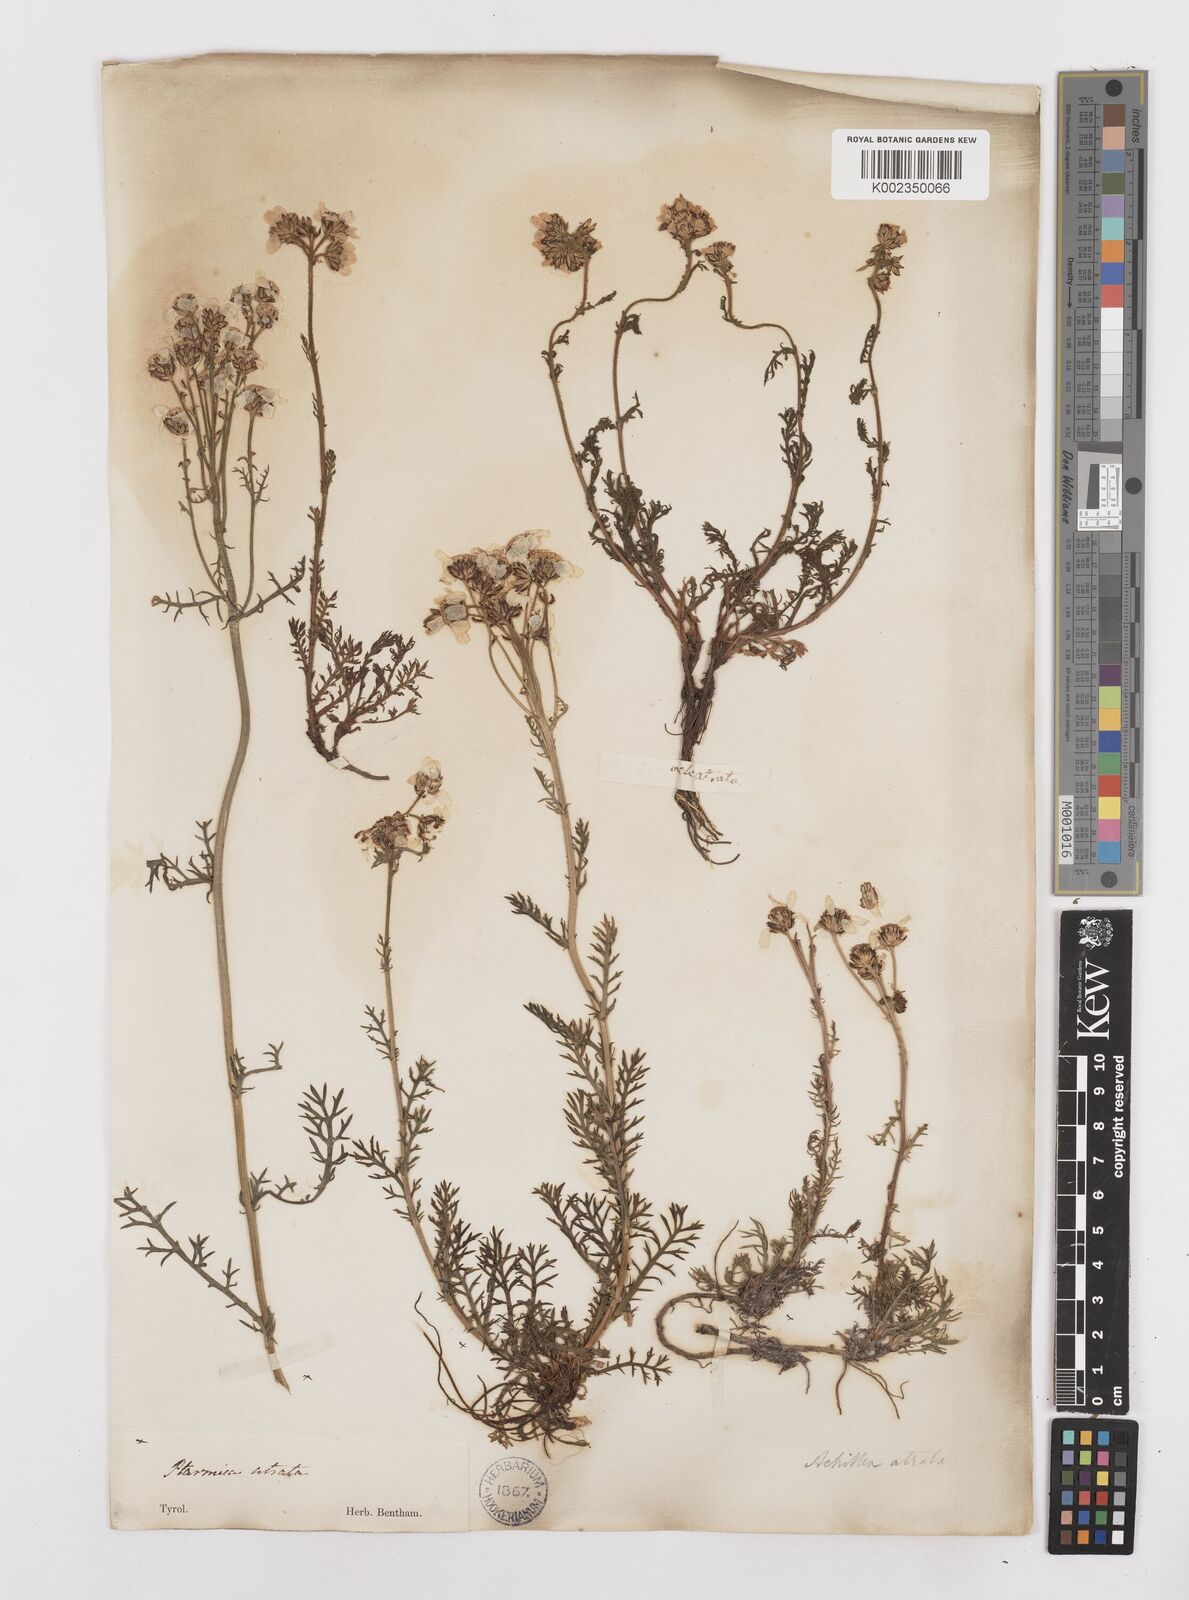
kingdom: Plantae
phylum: Tracheophyta
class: Magnoliopsida
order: Asterales
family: Asteraceae
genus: Achillea
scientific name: Achillea atrata
